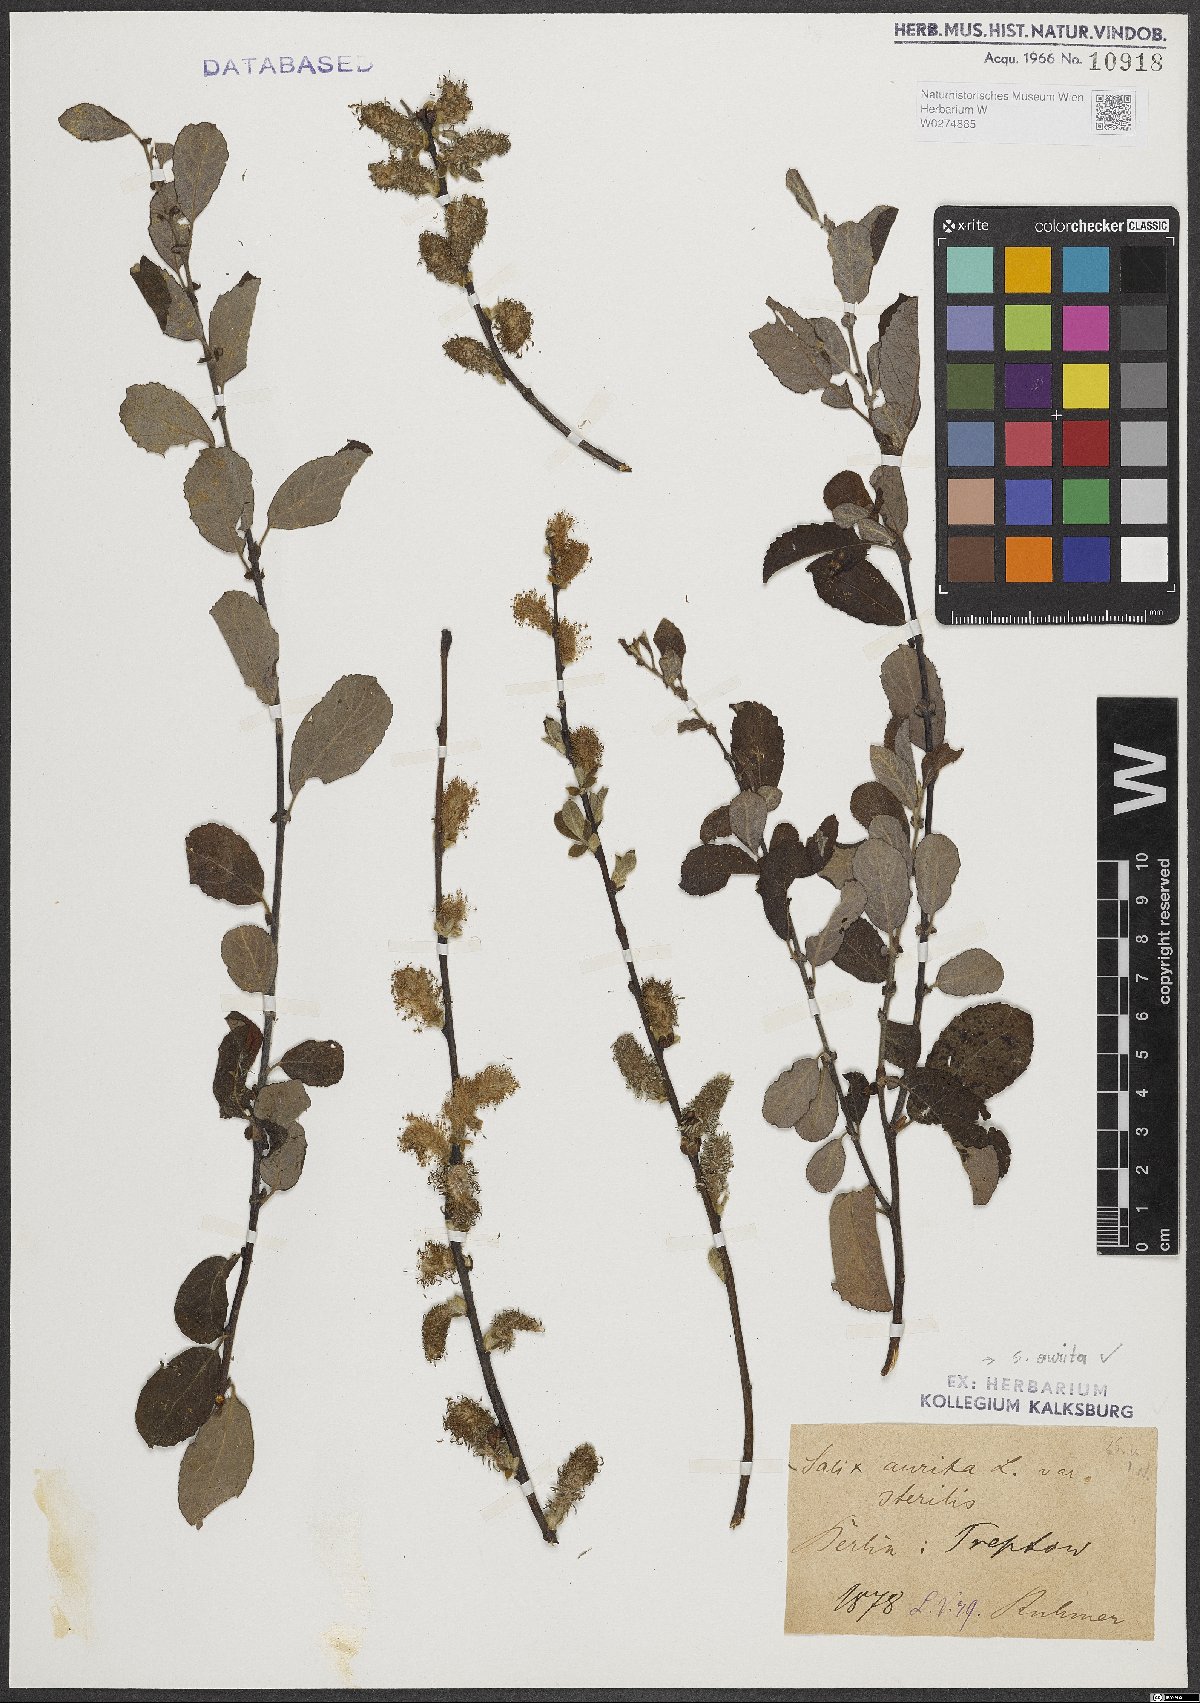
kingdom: Plantae
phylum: Tracheophyta
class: Magnoliopsida
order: Malpighiales
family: Salicaceae
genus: Salix
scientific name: Salix aurita
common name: Eared willow
